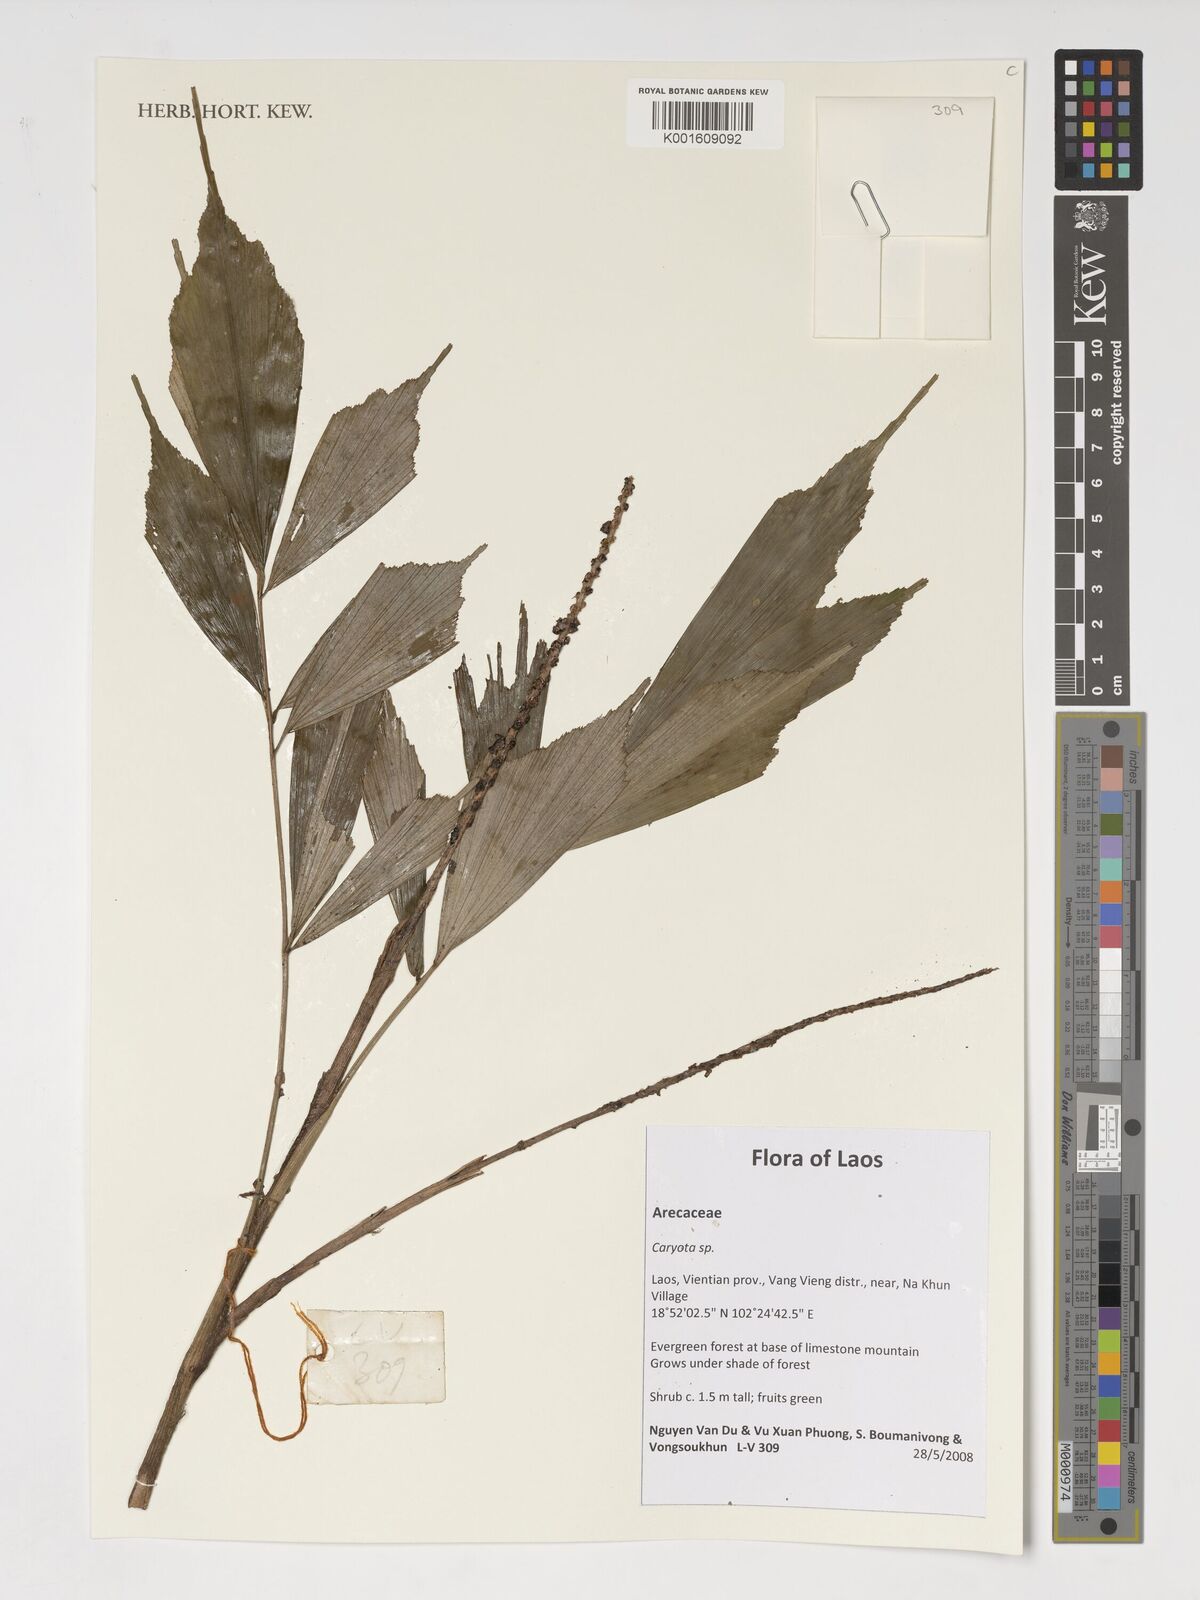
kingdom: Plantae
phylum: Tracheophyta
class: Liliopsida
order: Arecales
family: Arecaceae
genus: Caryota
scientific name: Caryota
